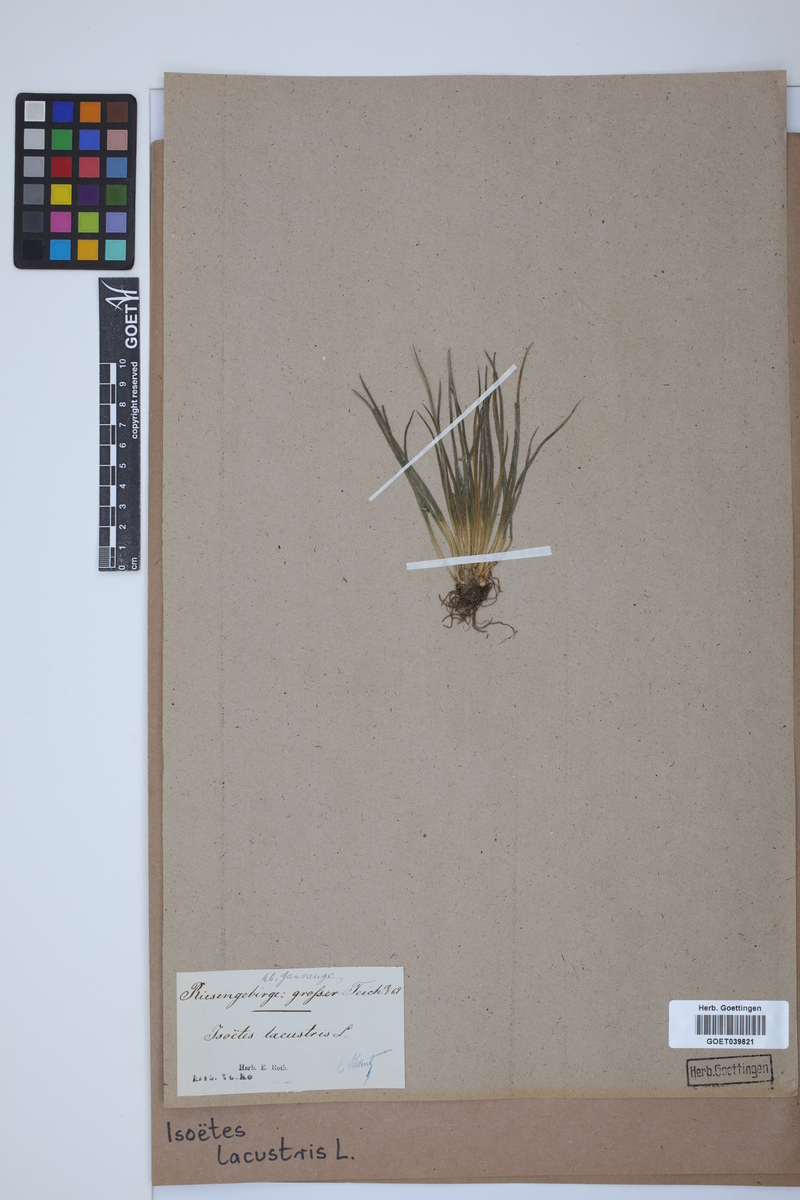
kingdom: Plantae
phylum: Tracheophyta
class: Lycopodiopsida
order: Isoetales
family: Isoetaceae
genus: Isoetes
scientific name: Isoetes lacustris
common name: Common quillwort
